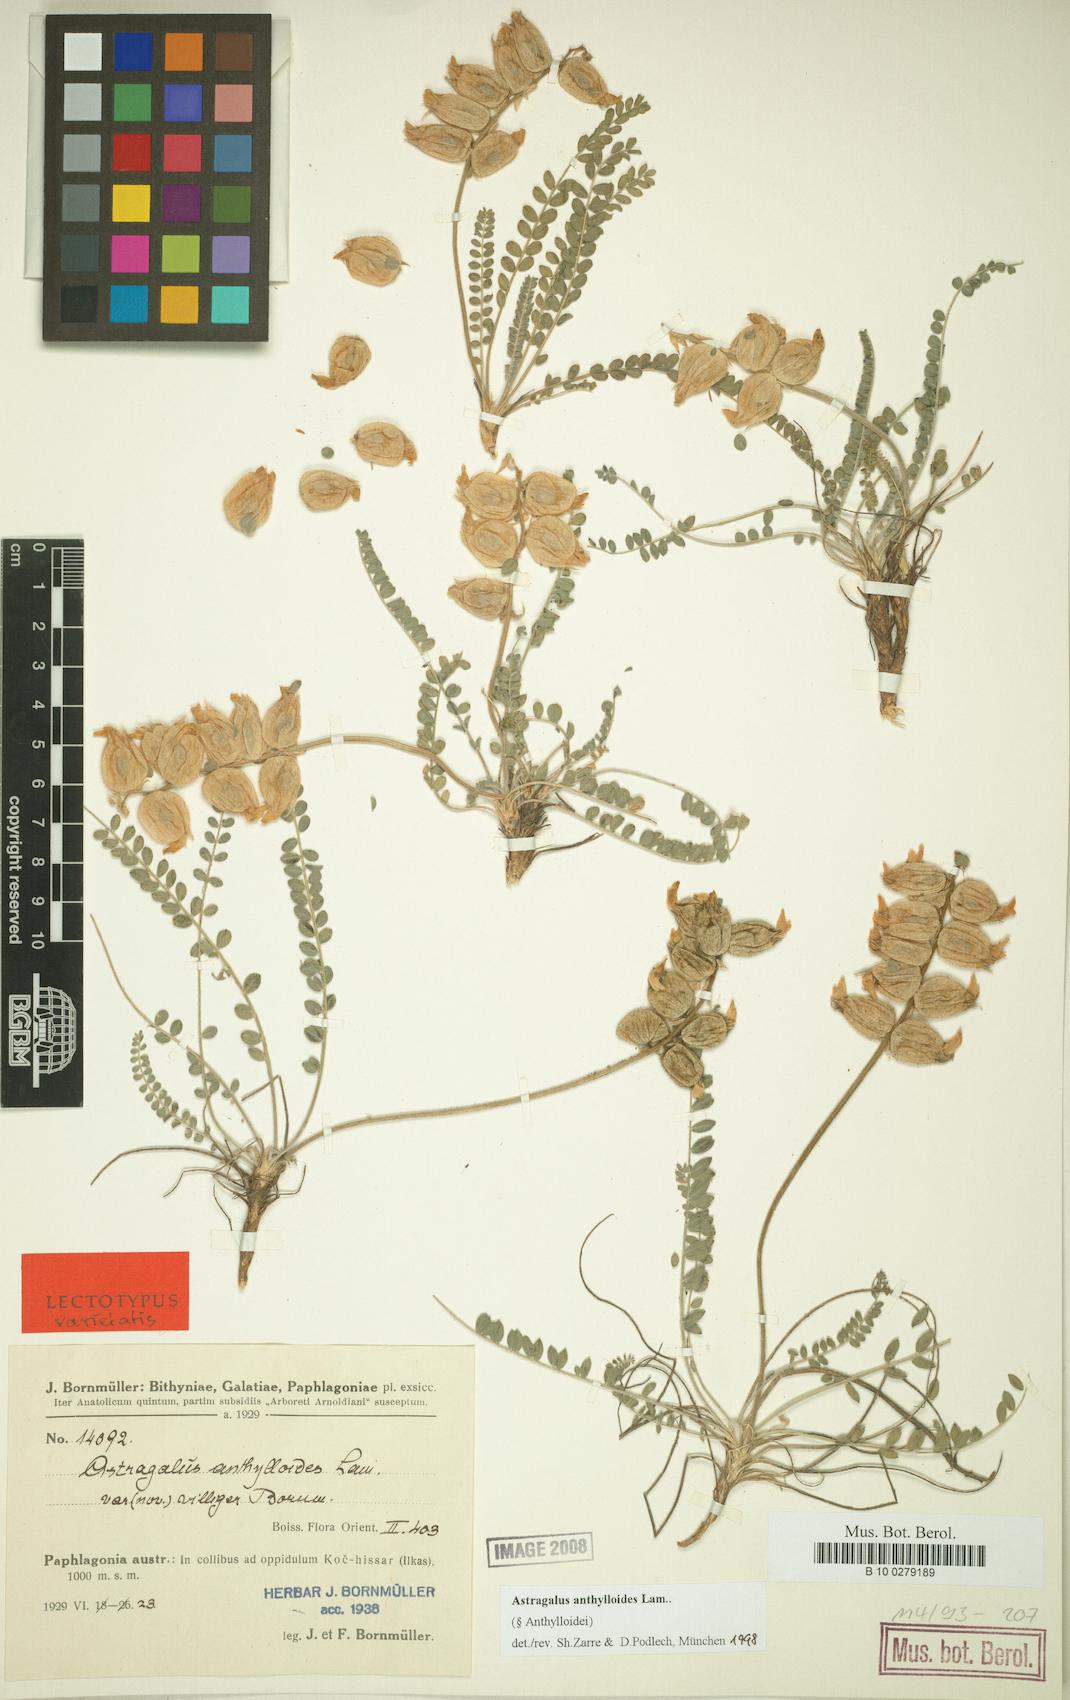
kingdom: Plantae
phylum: Tracheophyta
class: Magnoliopsida
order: Fabales
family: Fabaceae
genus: Astragalus
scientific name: Astragalus anthylloides
